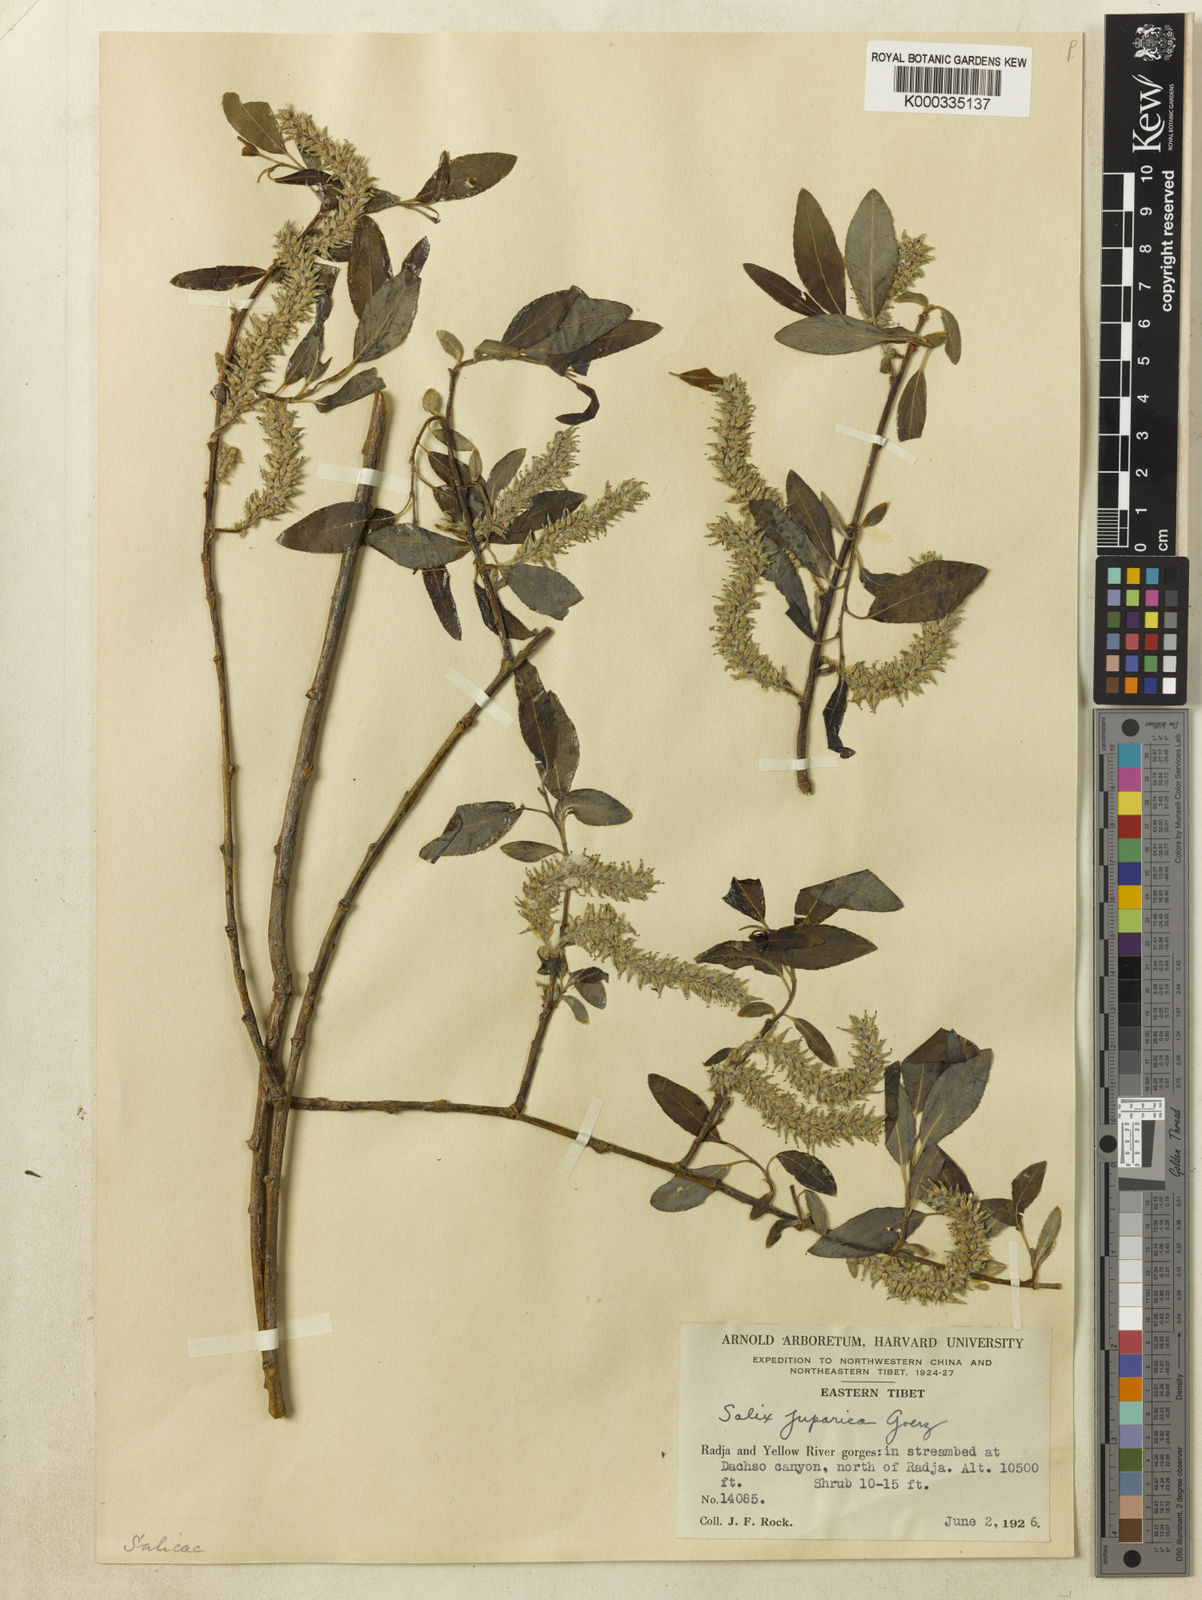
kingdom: Plantae
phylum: Tracheophyta
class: Magnoliopsida
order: Malpighiales
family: Salicaceae
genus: Salix
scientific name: Salix
